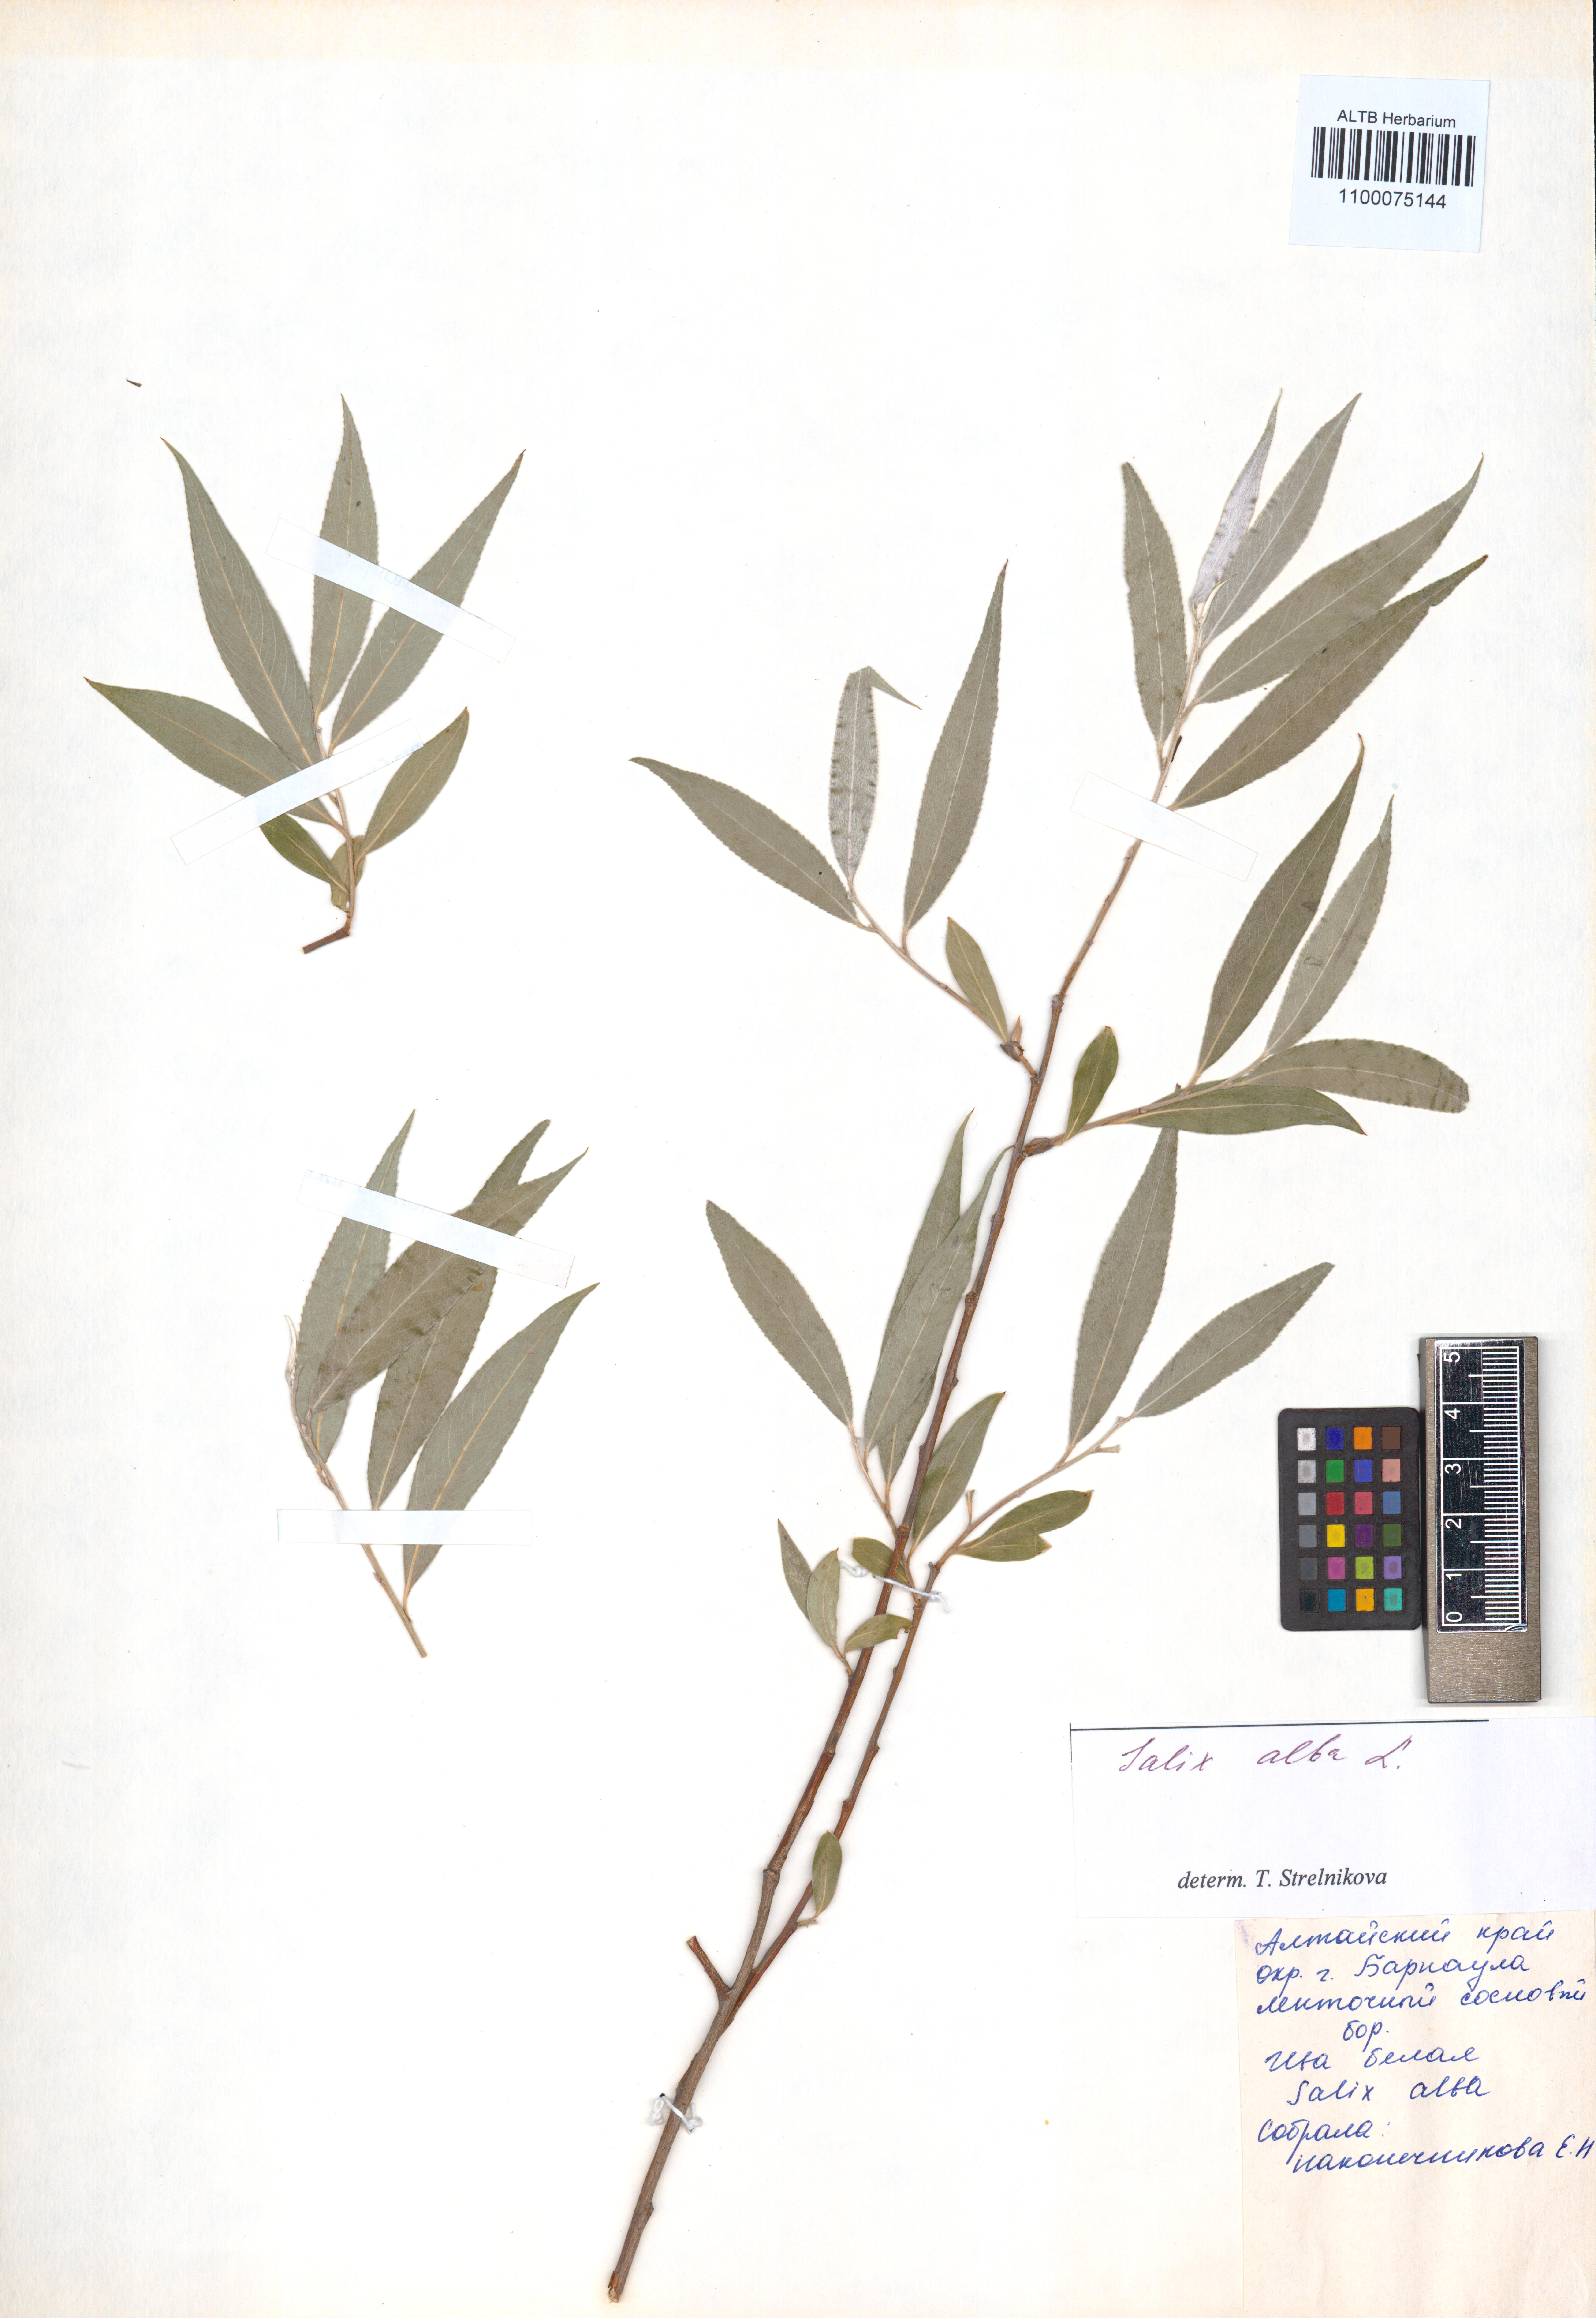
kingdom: Plantae
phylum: Tracheophyta
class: Magnoliopsida
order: Malpighiales
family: Salicaceae
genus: Salix
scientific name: Salix alba
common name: White willow
